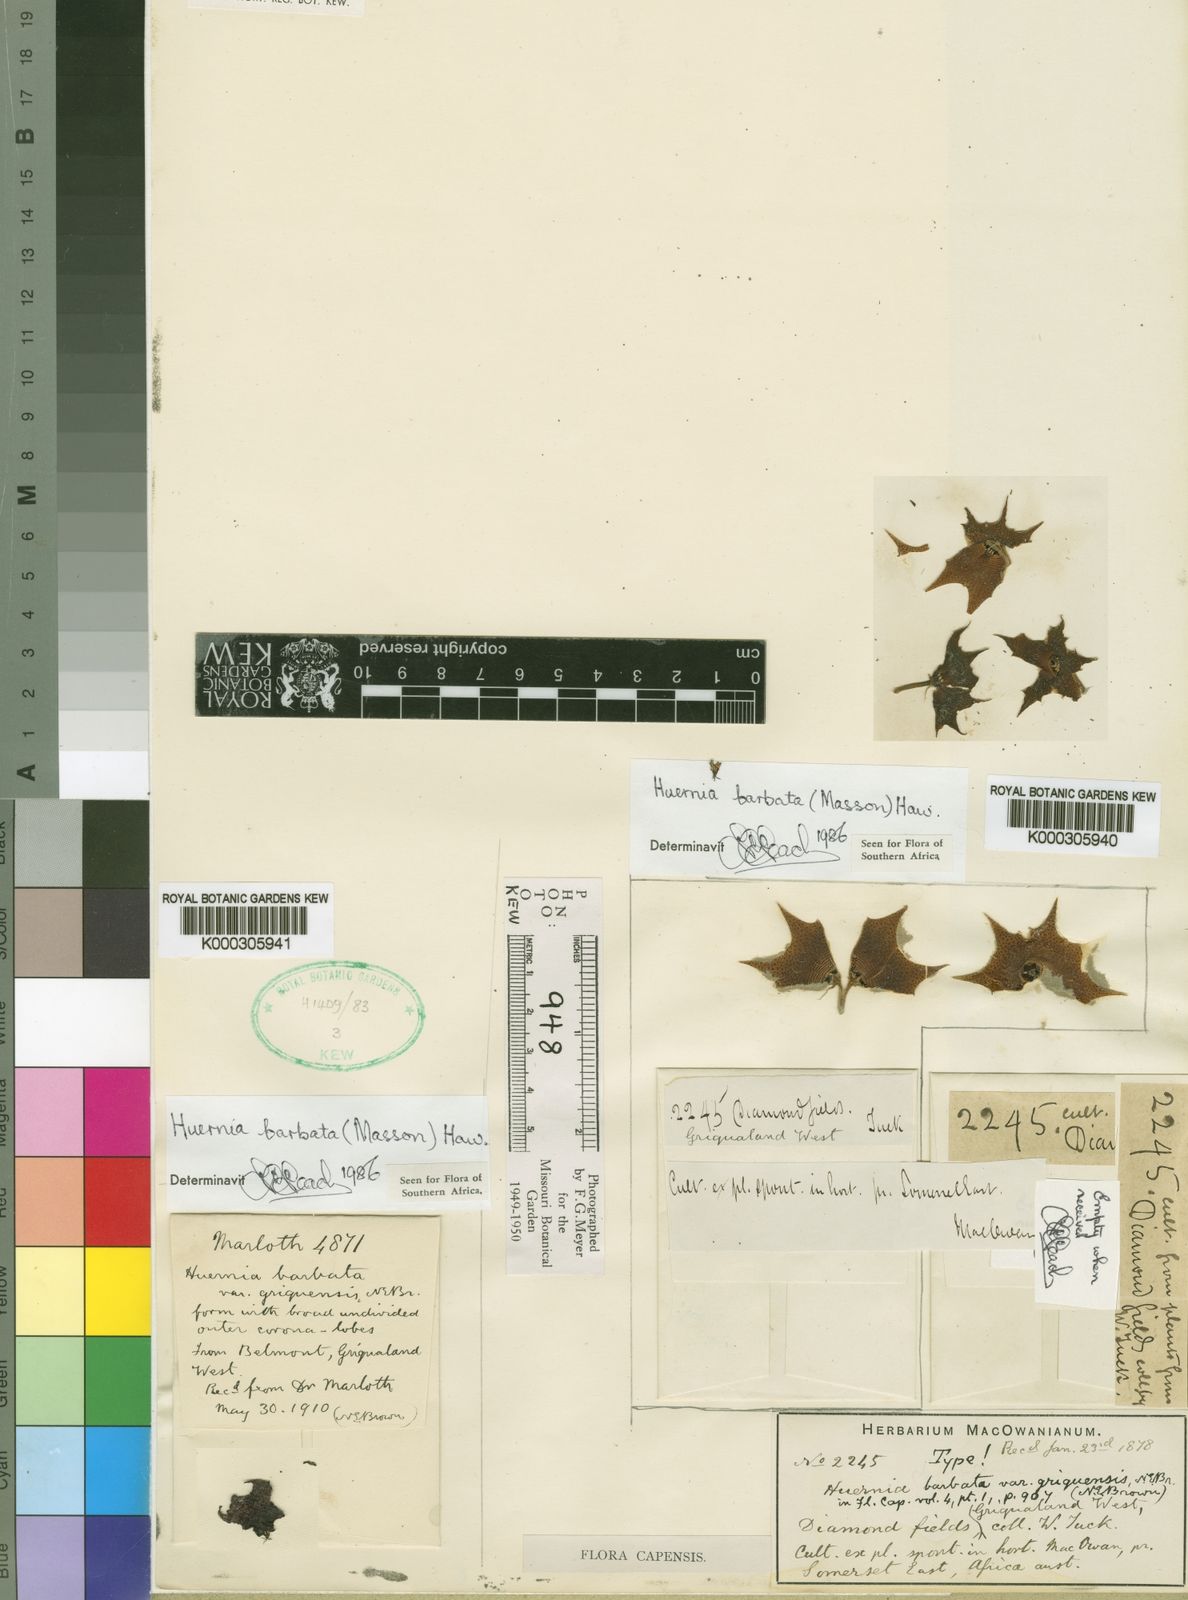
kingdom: Plantae
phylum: Tracheophyta
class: Magnoliopsida
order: Gentianales
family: Apocynaceae
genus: Ceropegia
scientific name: Ceropegia clavigera
